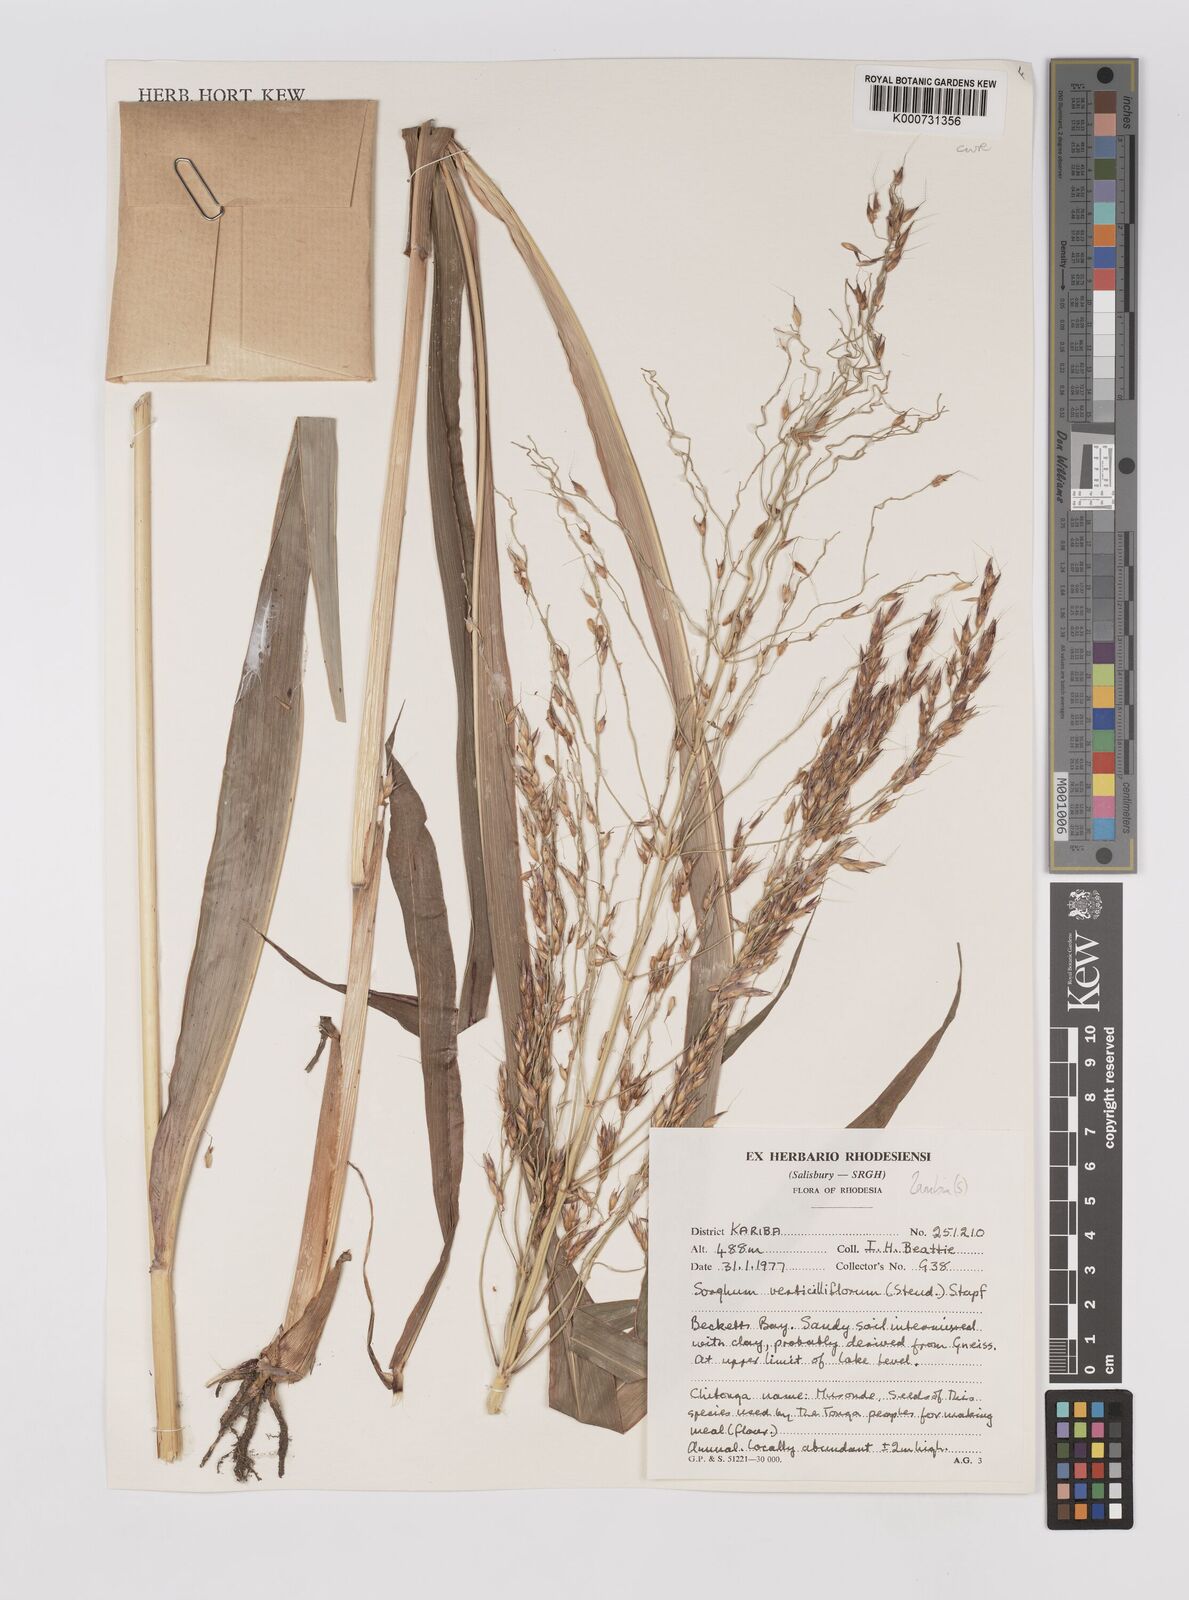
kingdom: Plantae
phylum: Tracheophyta
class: Liliopsida
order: Poales
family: Poaceae
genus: Sorghum
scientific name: Sorghum arundinaceum
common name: Sorghum
